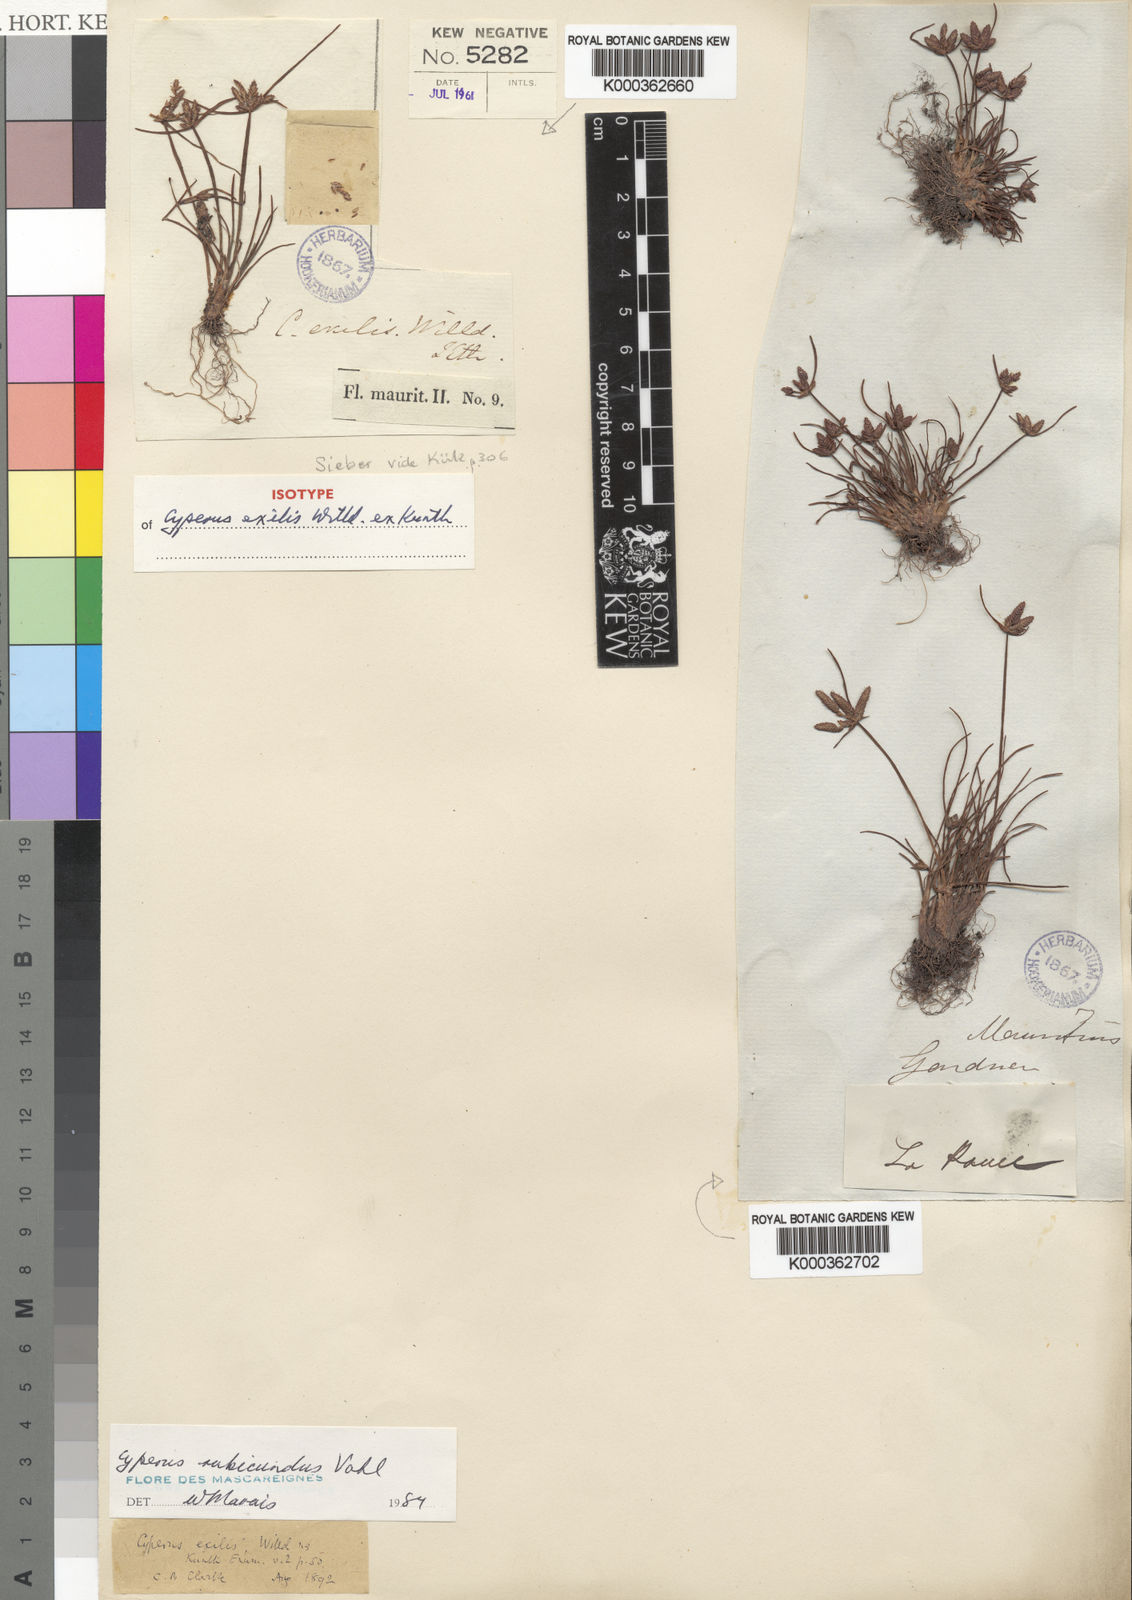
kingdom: Plantae
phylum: Tracheophyta
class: Liliopsida
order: Poales
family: Cyperaceae
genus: Cyperus
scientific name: Cyperus rubicundus
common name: Coco-grass
